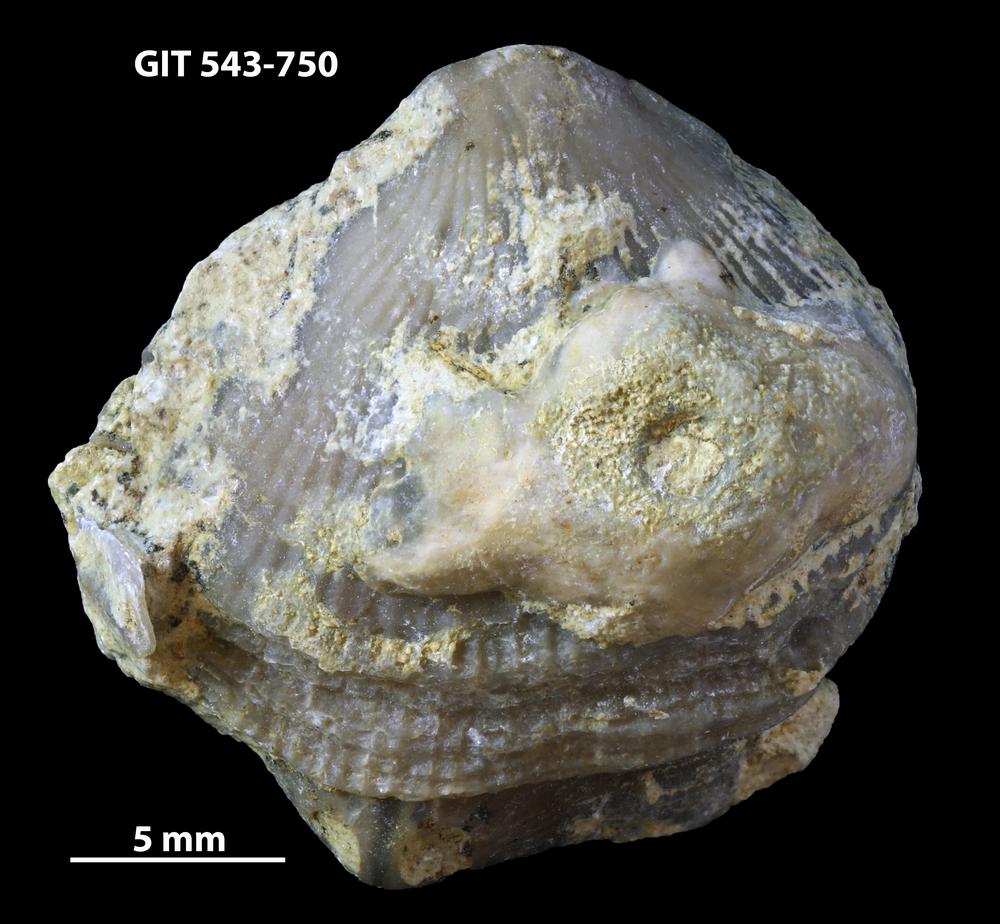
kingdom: Animalia
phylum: Brachiopoda
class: Rhynchonellata
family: Clitambonitidae
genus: Vellamo
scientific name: Vellamo
